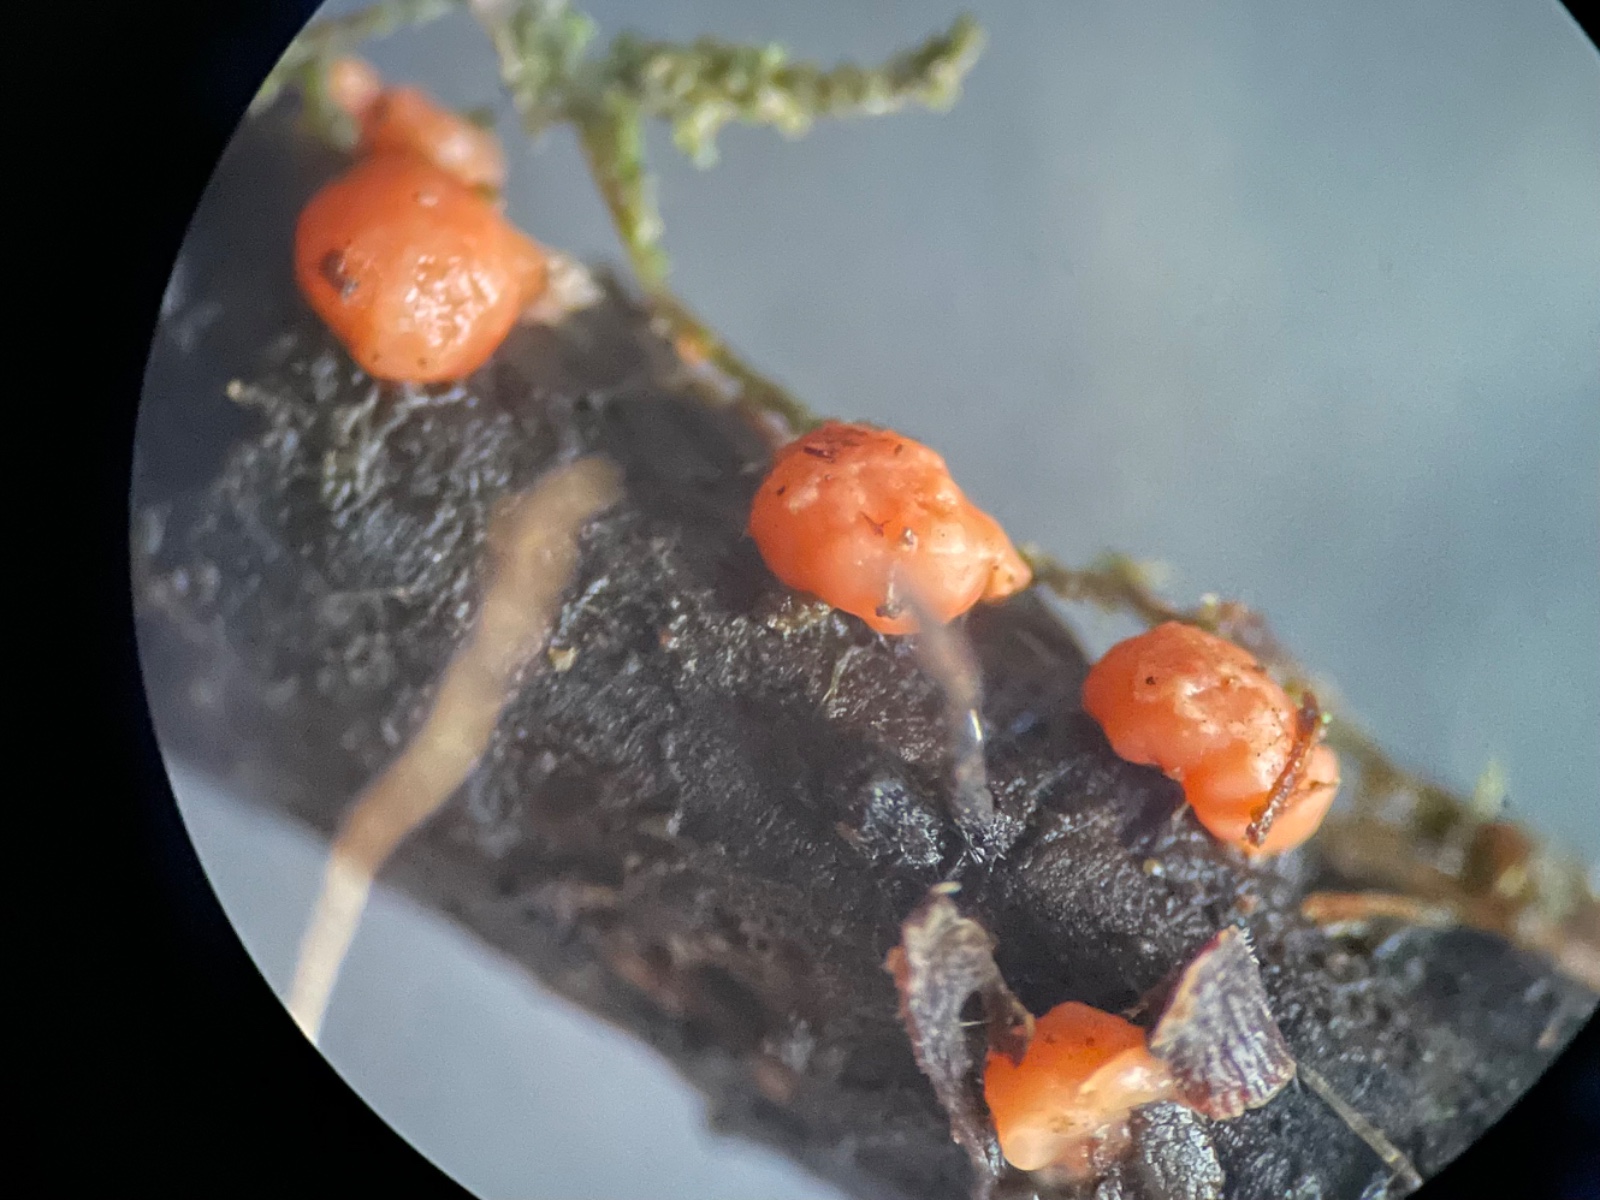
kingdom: Fungi
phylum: Ascomycota
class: Sordariomycetes
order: Hypocreales
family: Nectriaceae
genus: Nectria
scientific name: Nectria cinnabarina
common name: almindelig cinnobersvamp
